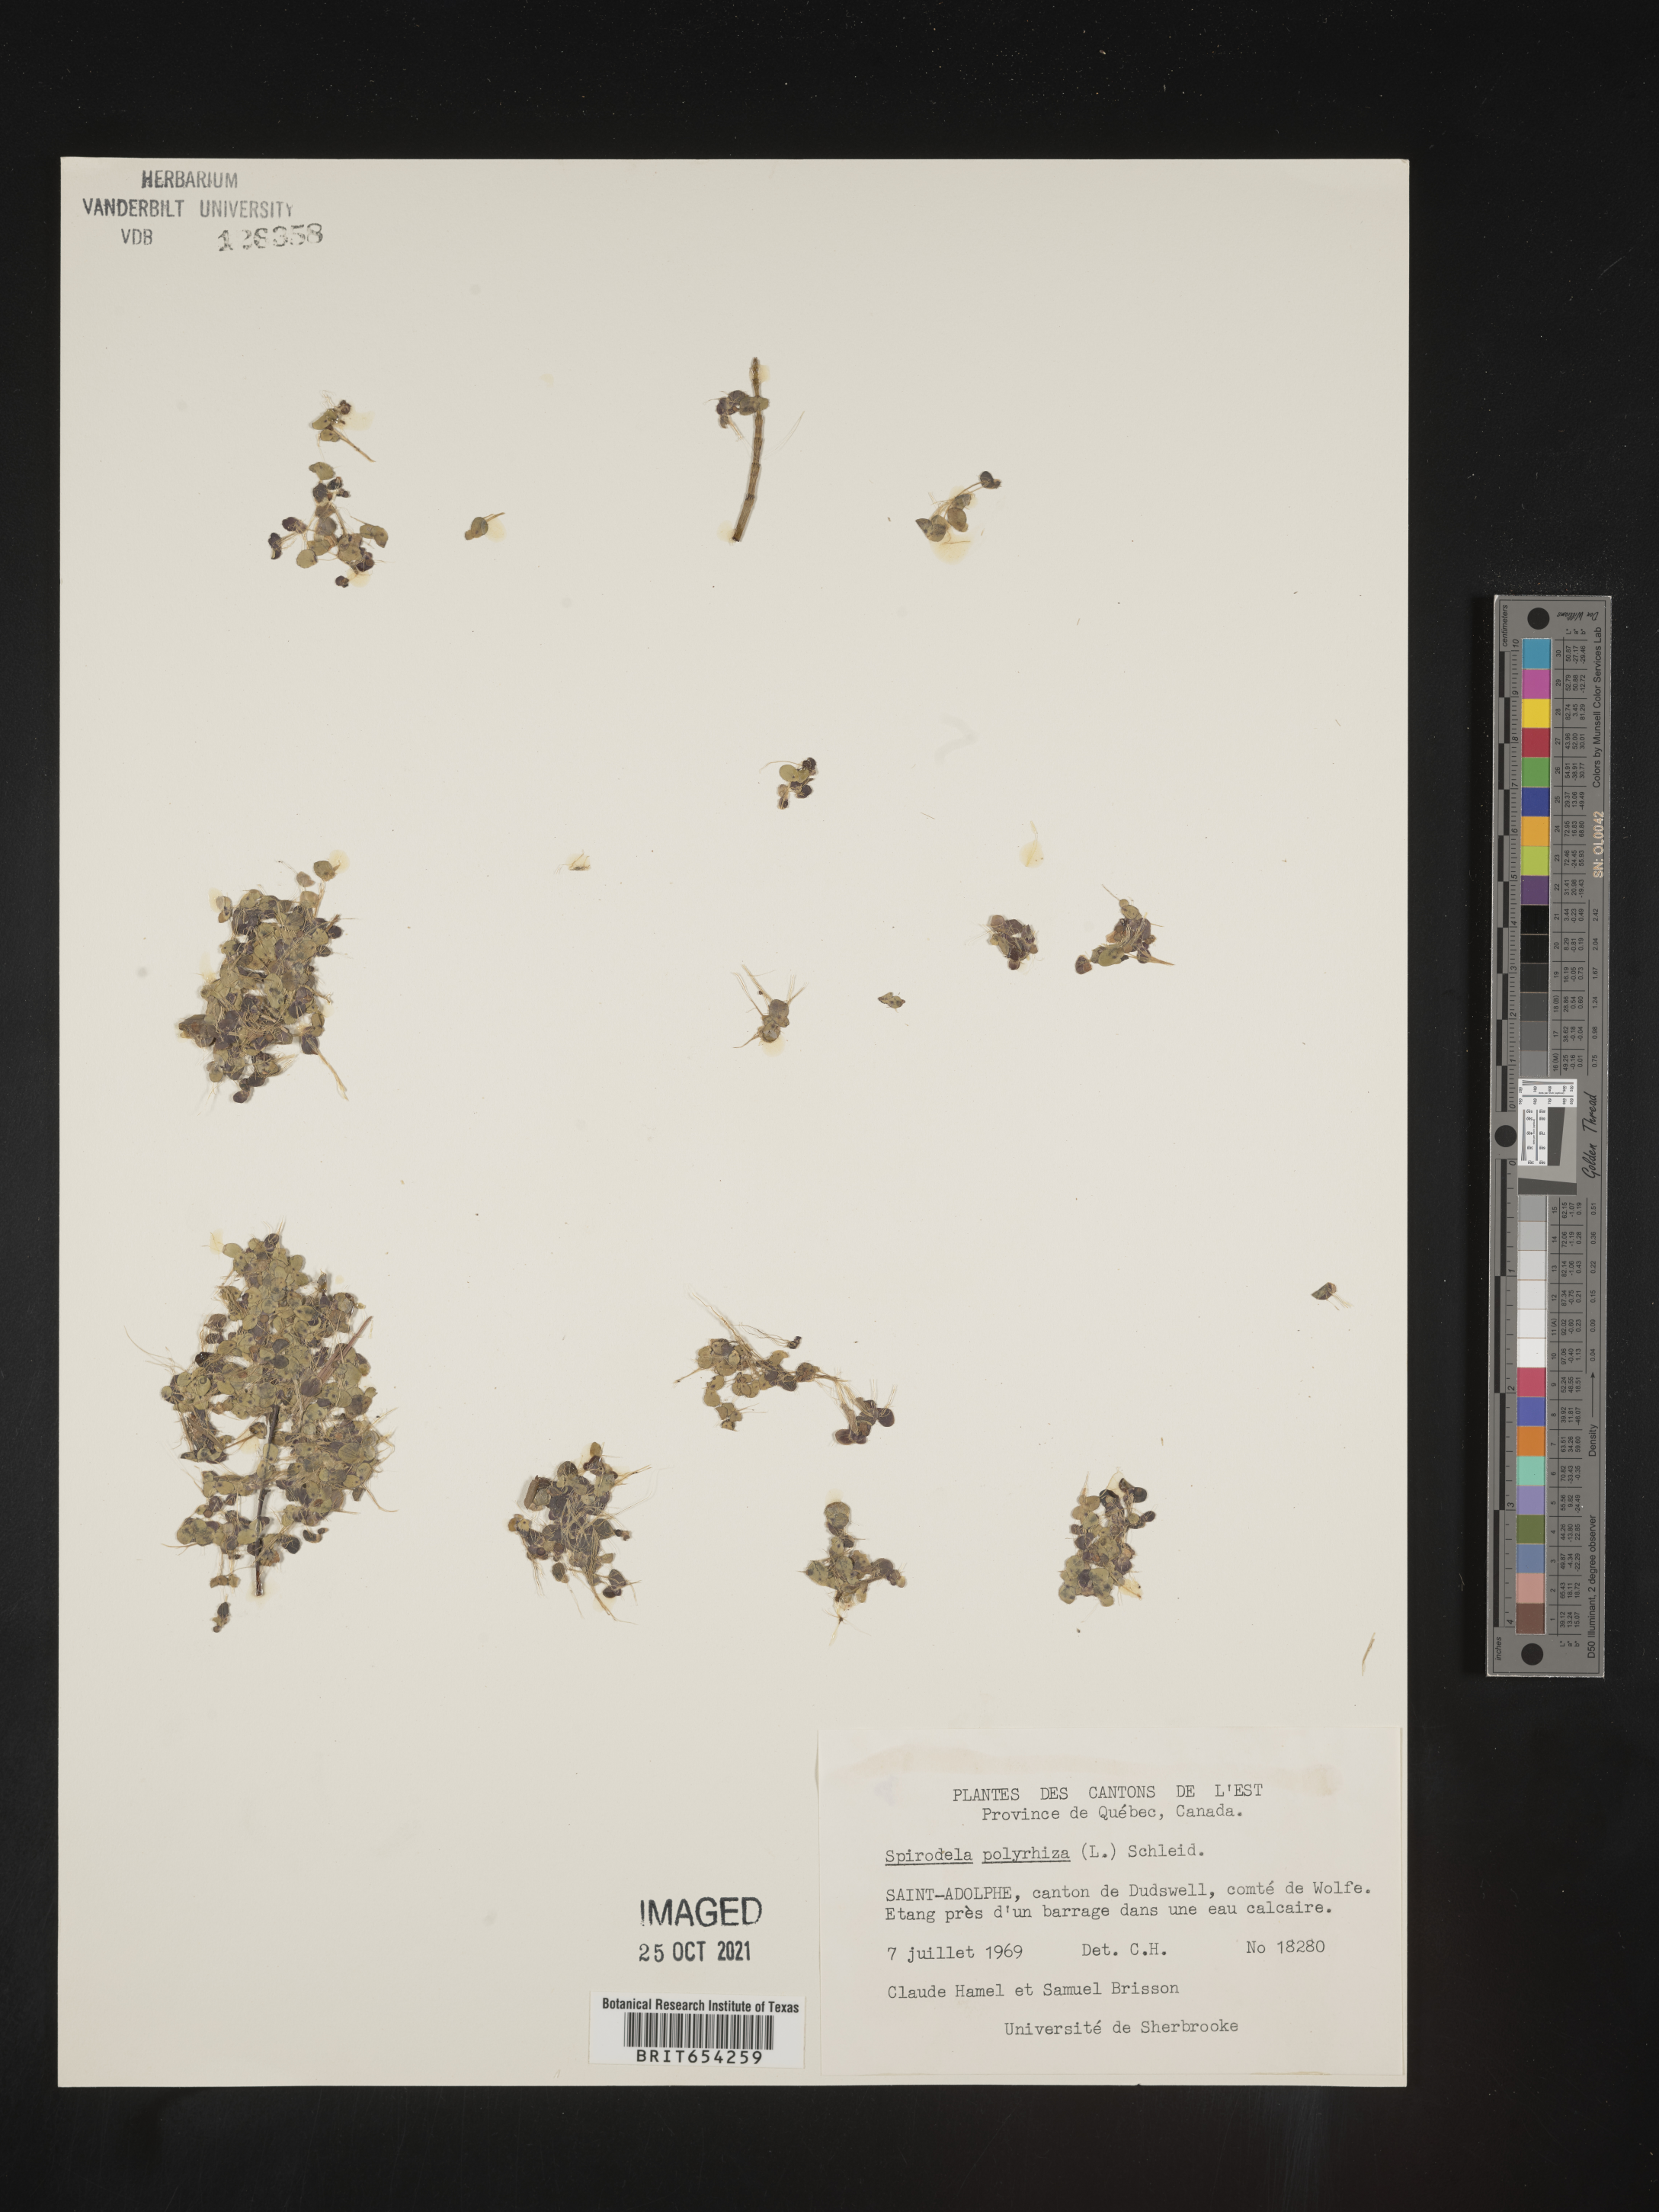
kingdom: Plantae
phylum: Tracheophyta
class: Liliopsida
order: Alismatales
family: Araceae
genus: Spirodela
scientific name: Spirodela polyrhiza
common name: Great duckweed
